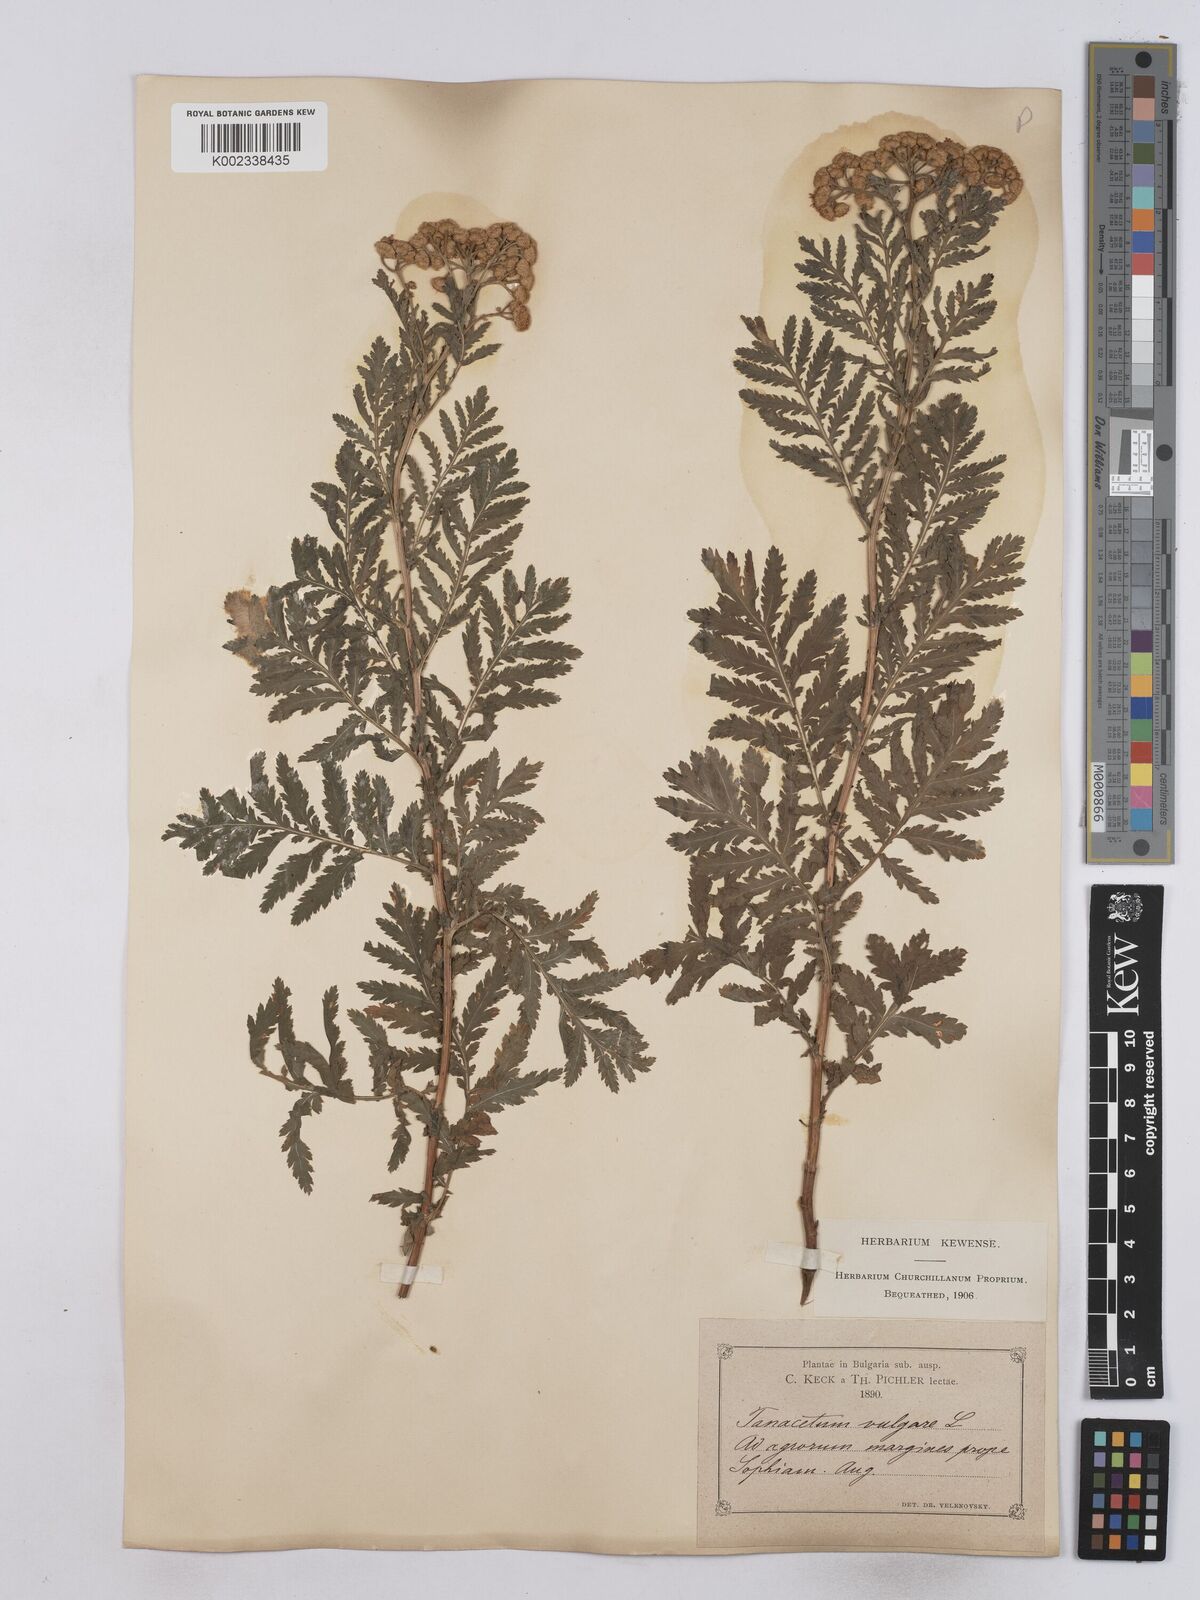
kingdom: Plantae
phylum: Tracheophyta
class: Magnoliopsida
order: Asterales
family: Asteraceae
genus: Tanacetum
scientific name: Tanacetum vulgare
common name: Common tansy
